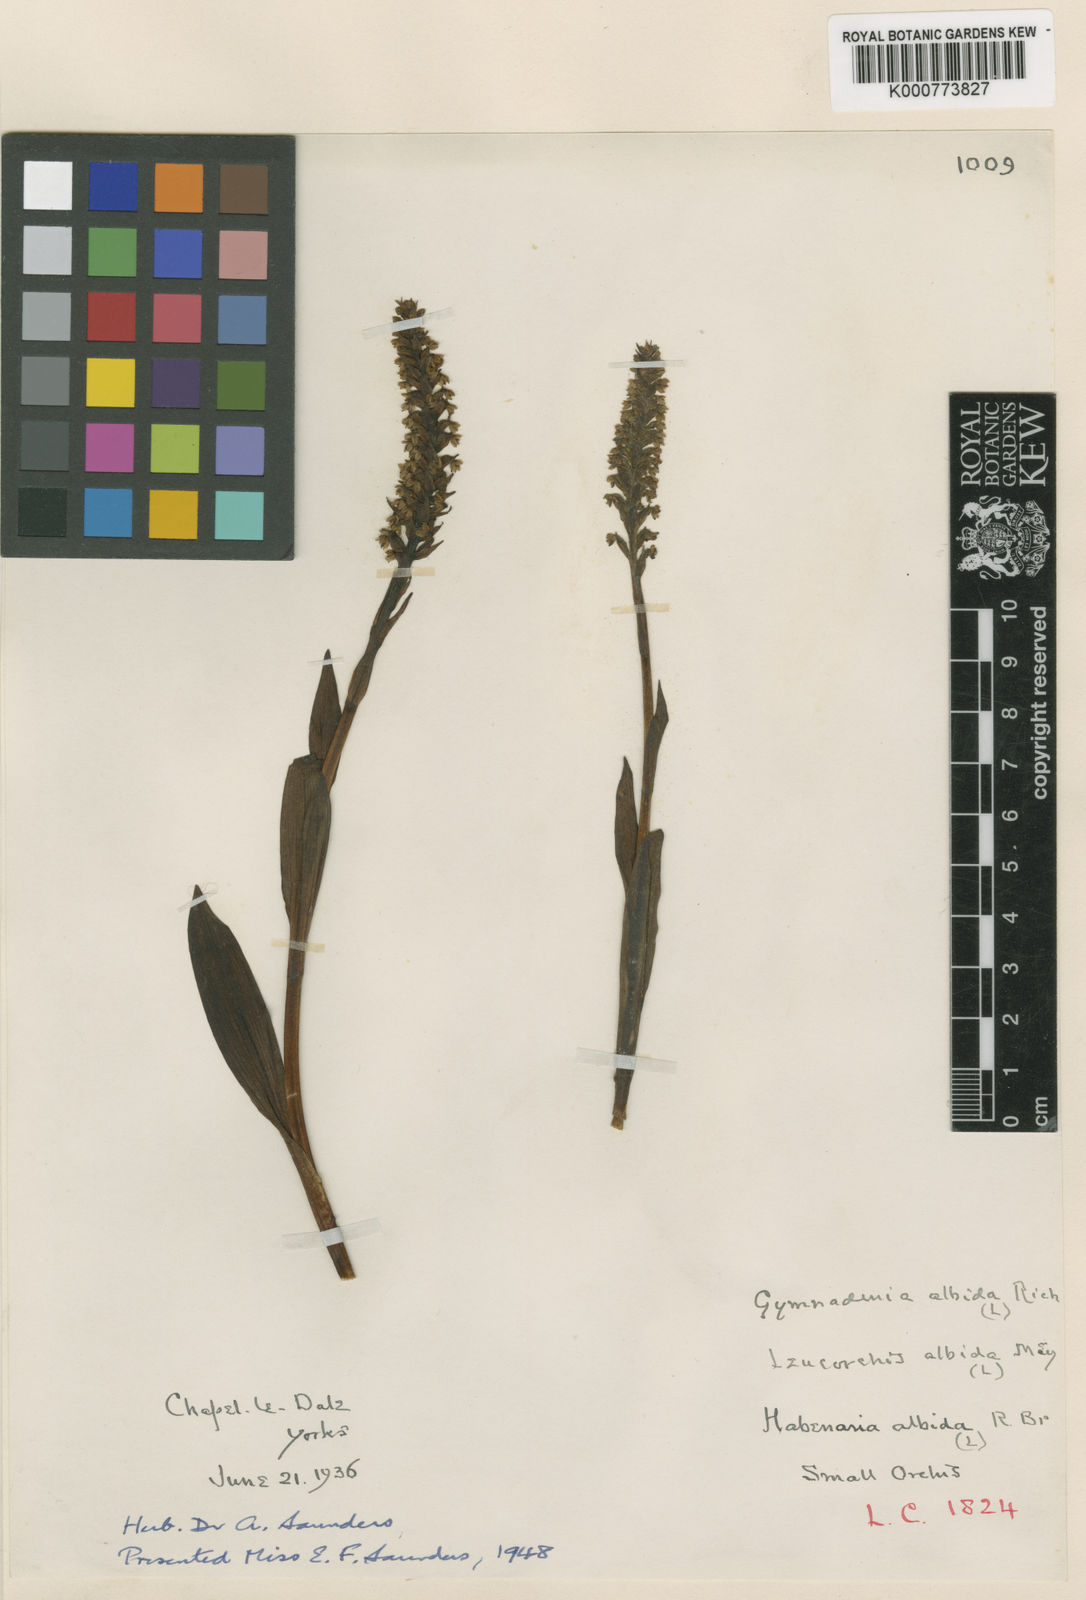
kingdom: Plantae
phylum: Tracheophyta
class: Liliopsida
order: Asparagales
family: Orchidaceae
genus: Pseudorchis
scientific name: Pseudorchis
